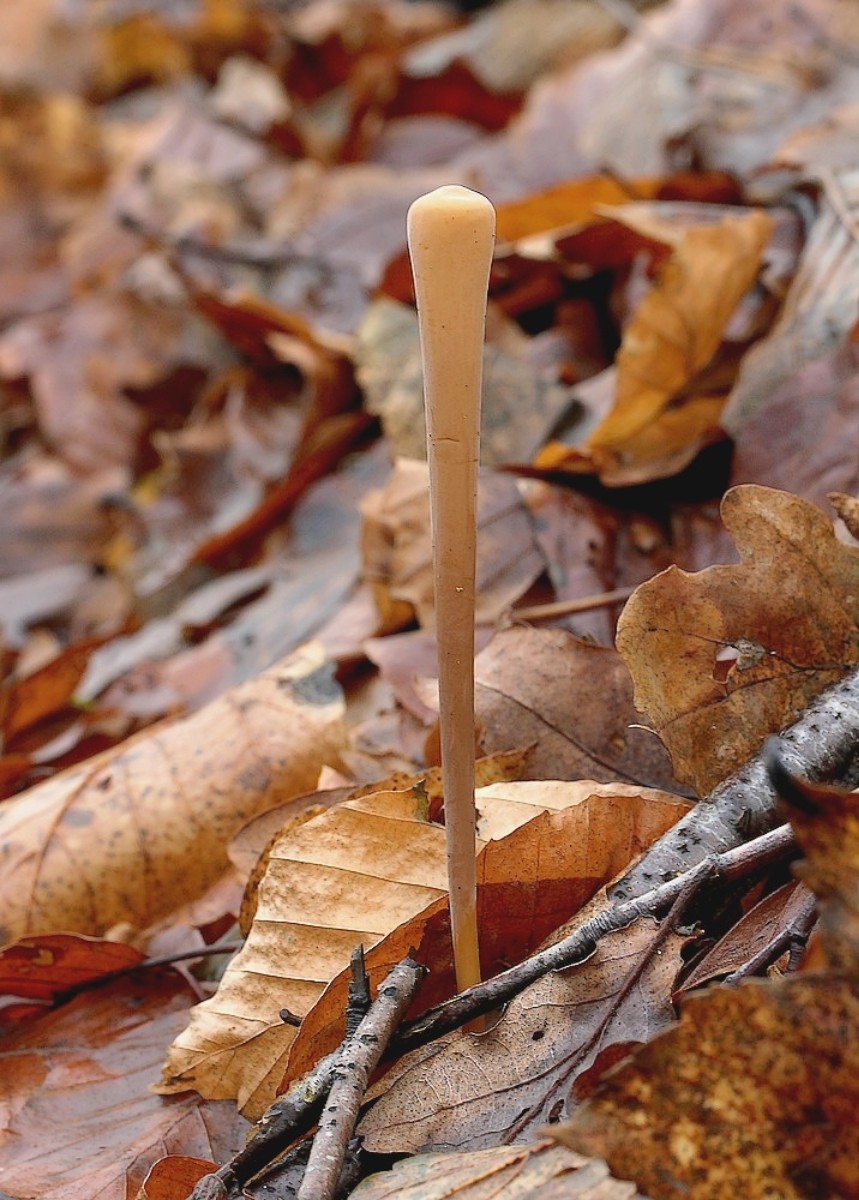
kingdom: Fungi
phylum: Basidiomycota
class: Agaricomycetes
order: Agaricales
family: Typhulaceae
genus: Typhula
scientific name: Typhula fistulosa
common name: pibet rørkølle
